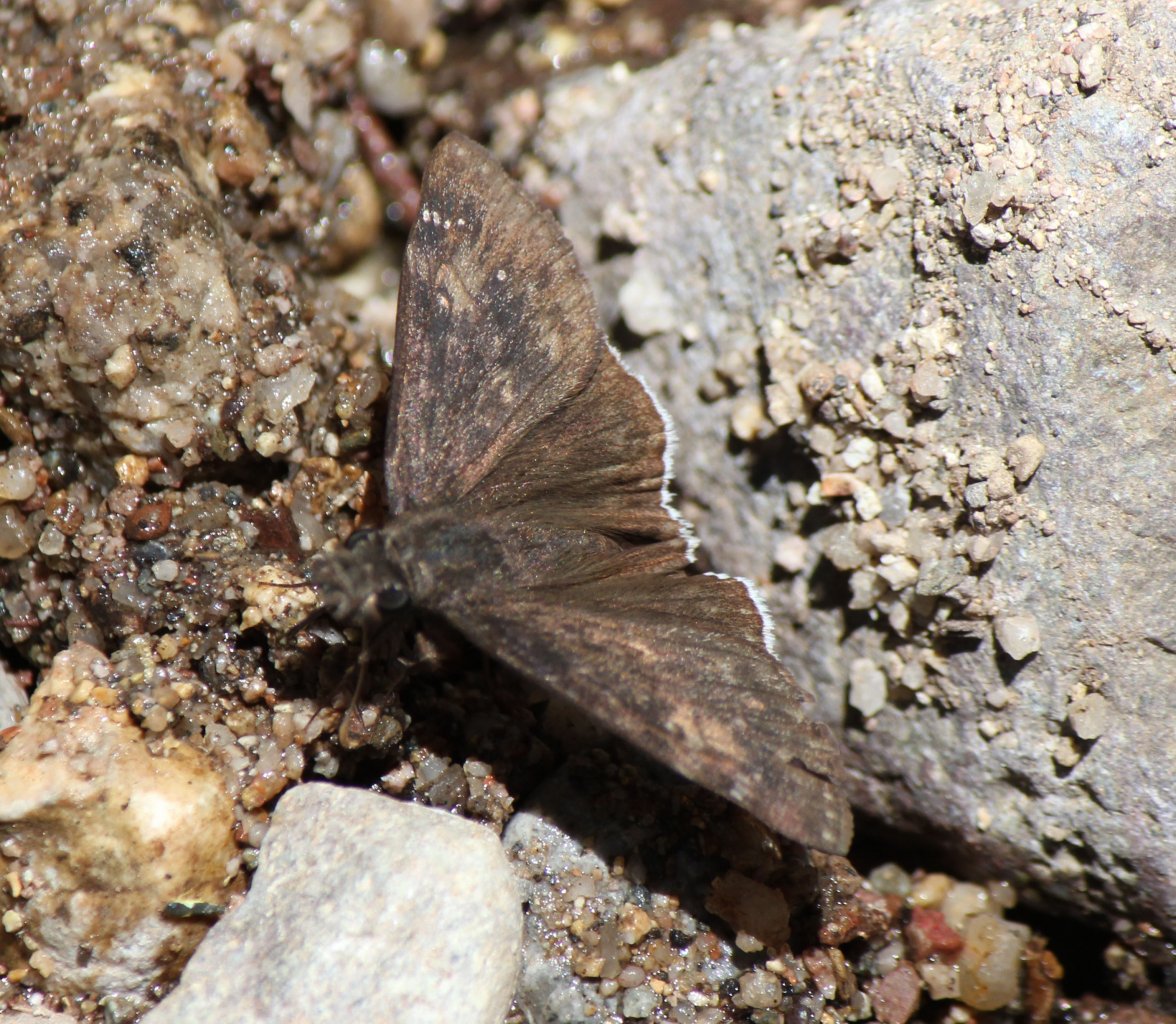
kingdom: Animalia
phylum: Arthropoda
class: Insecta
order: Lepidoptera
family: Hesperiidae
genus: Erynnis
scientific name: Erynnis
